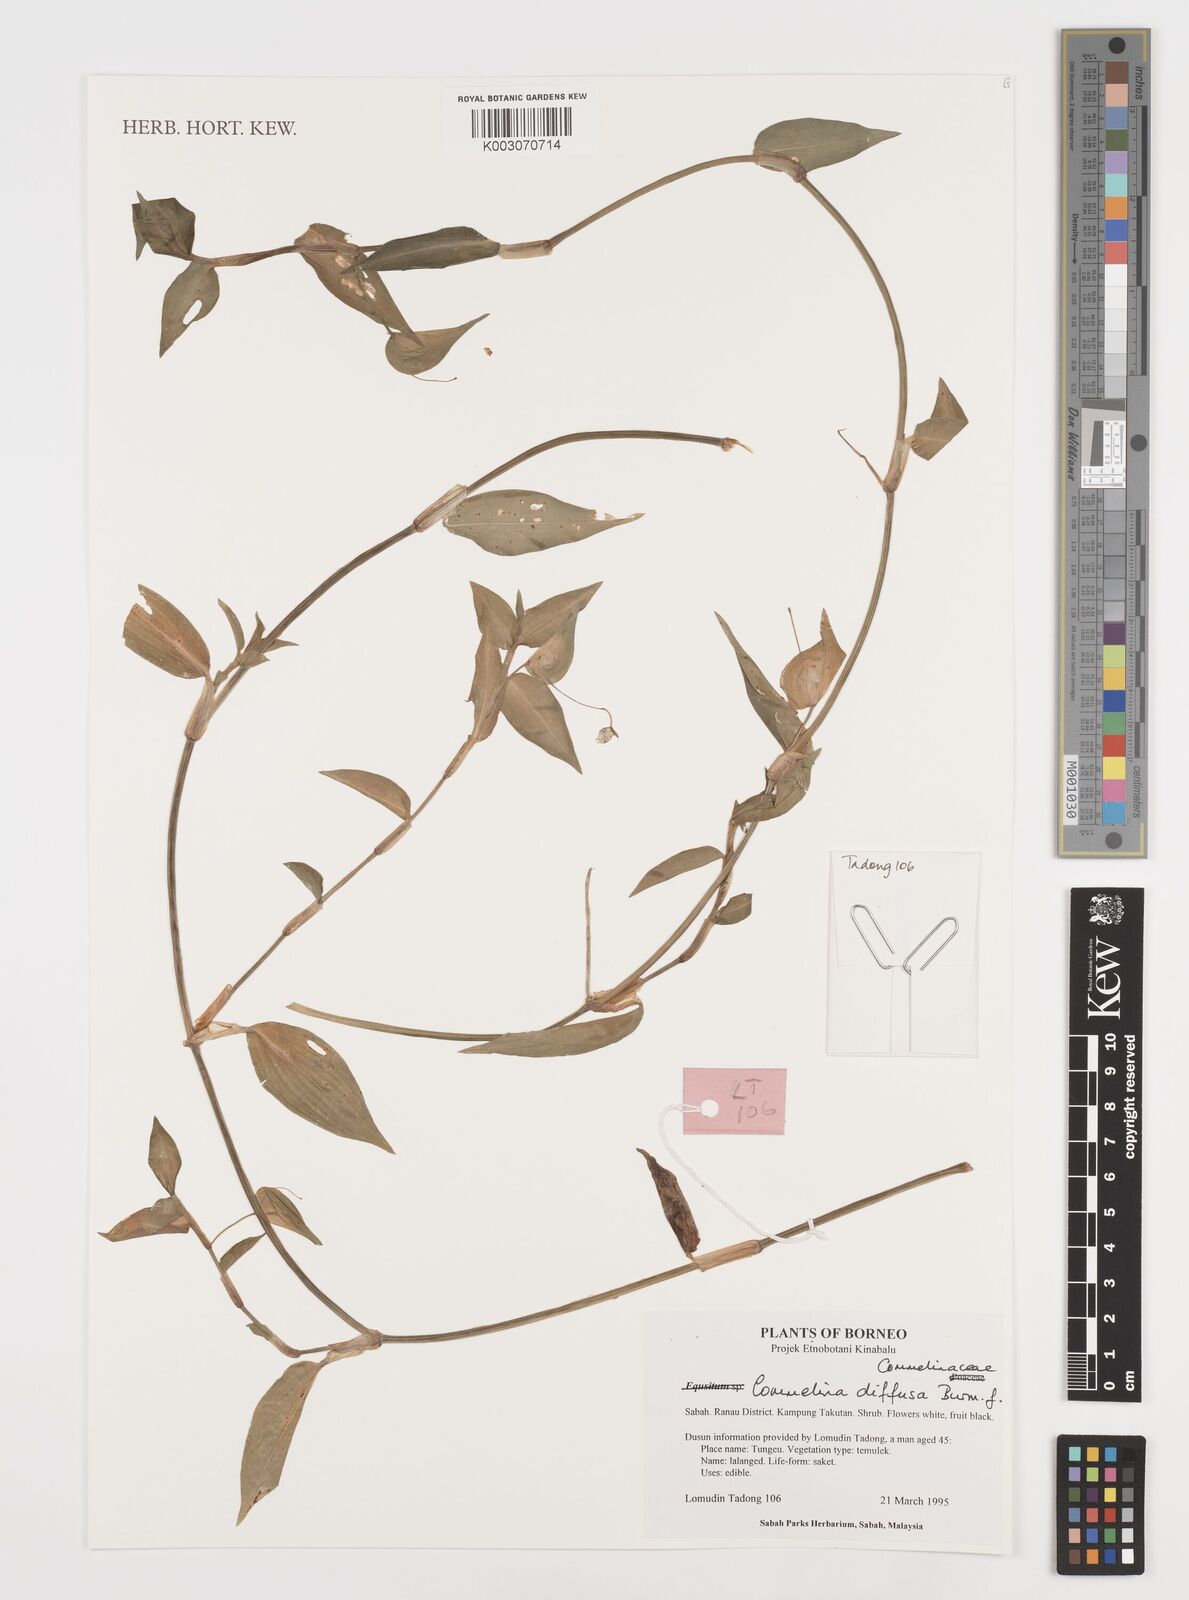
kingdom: Plantae
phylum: Tracheophyta
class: Liliopsida
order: Commelinales
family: Commelinaceae
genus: Commelina
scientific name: Commelina clavata
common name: Willow leaved dayflower
